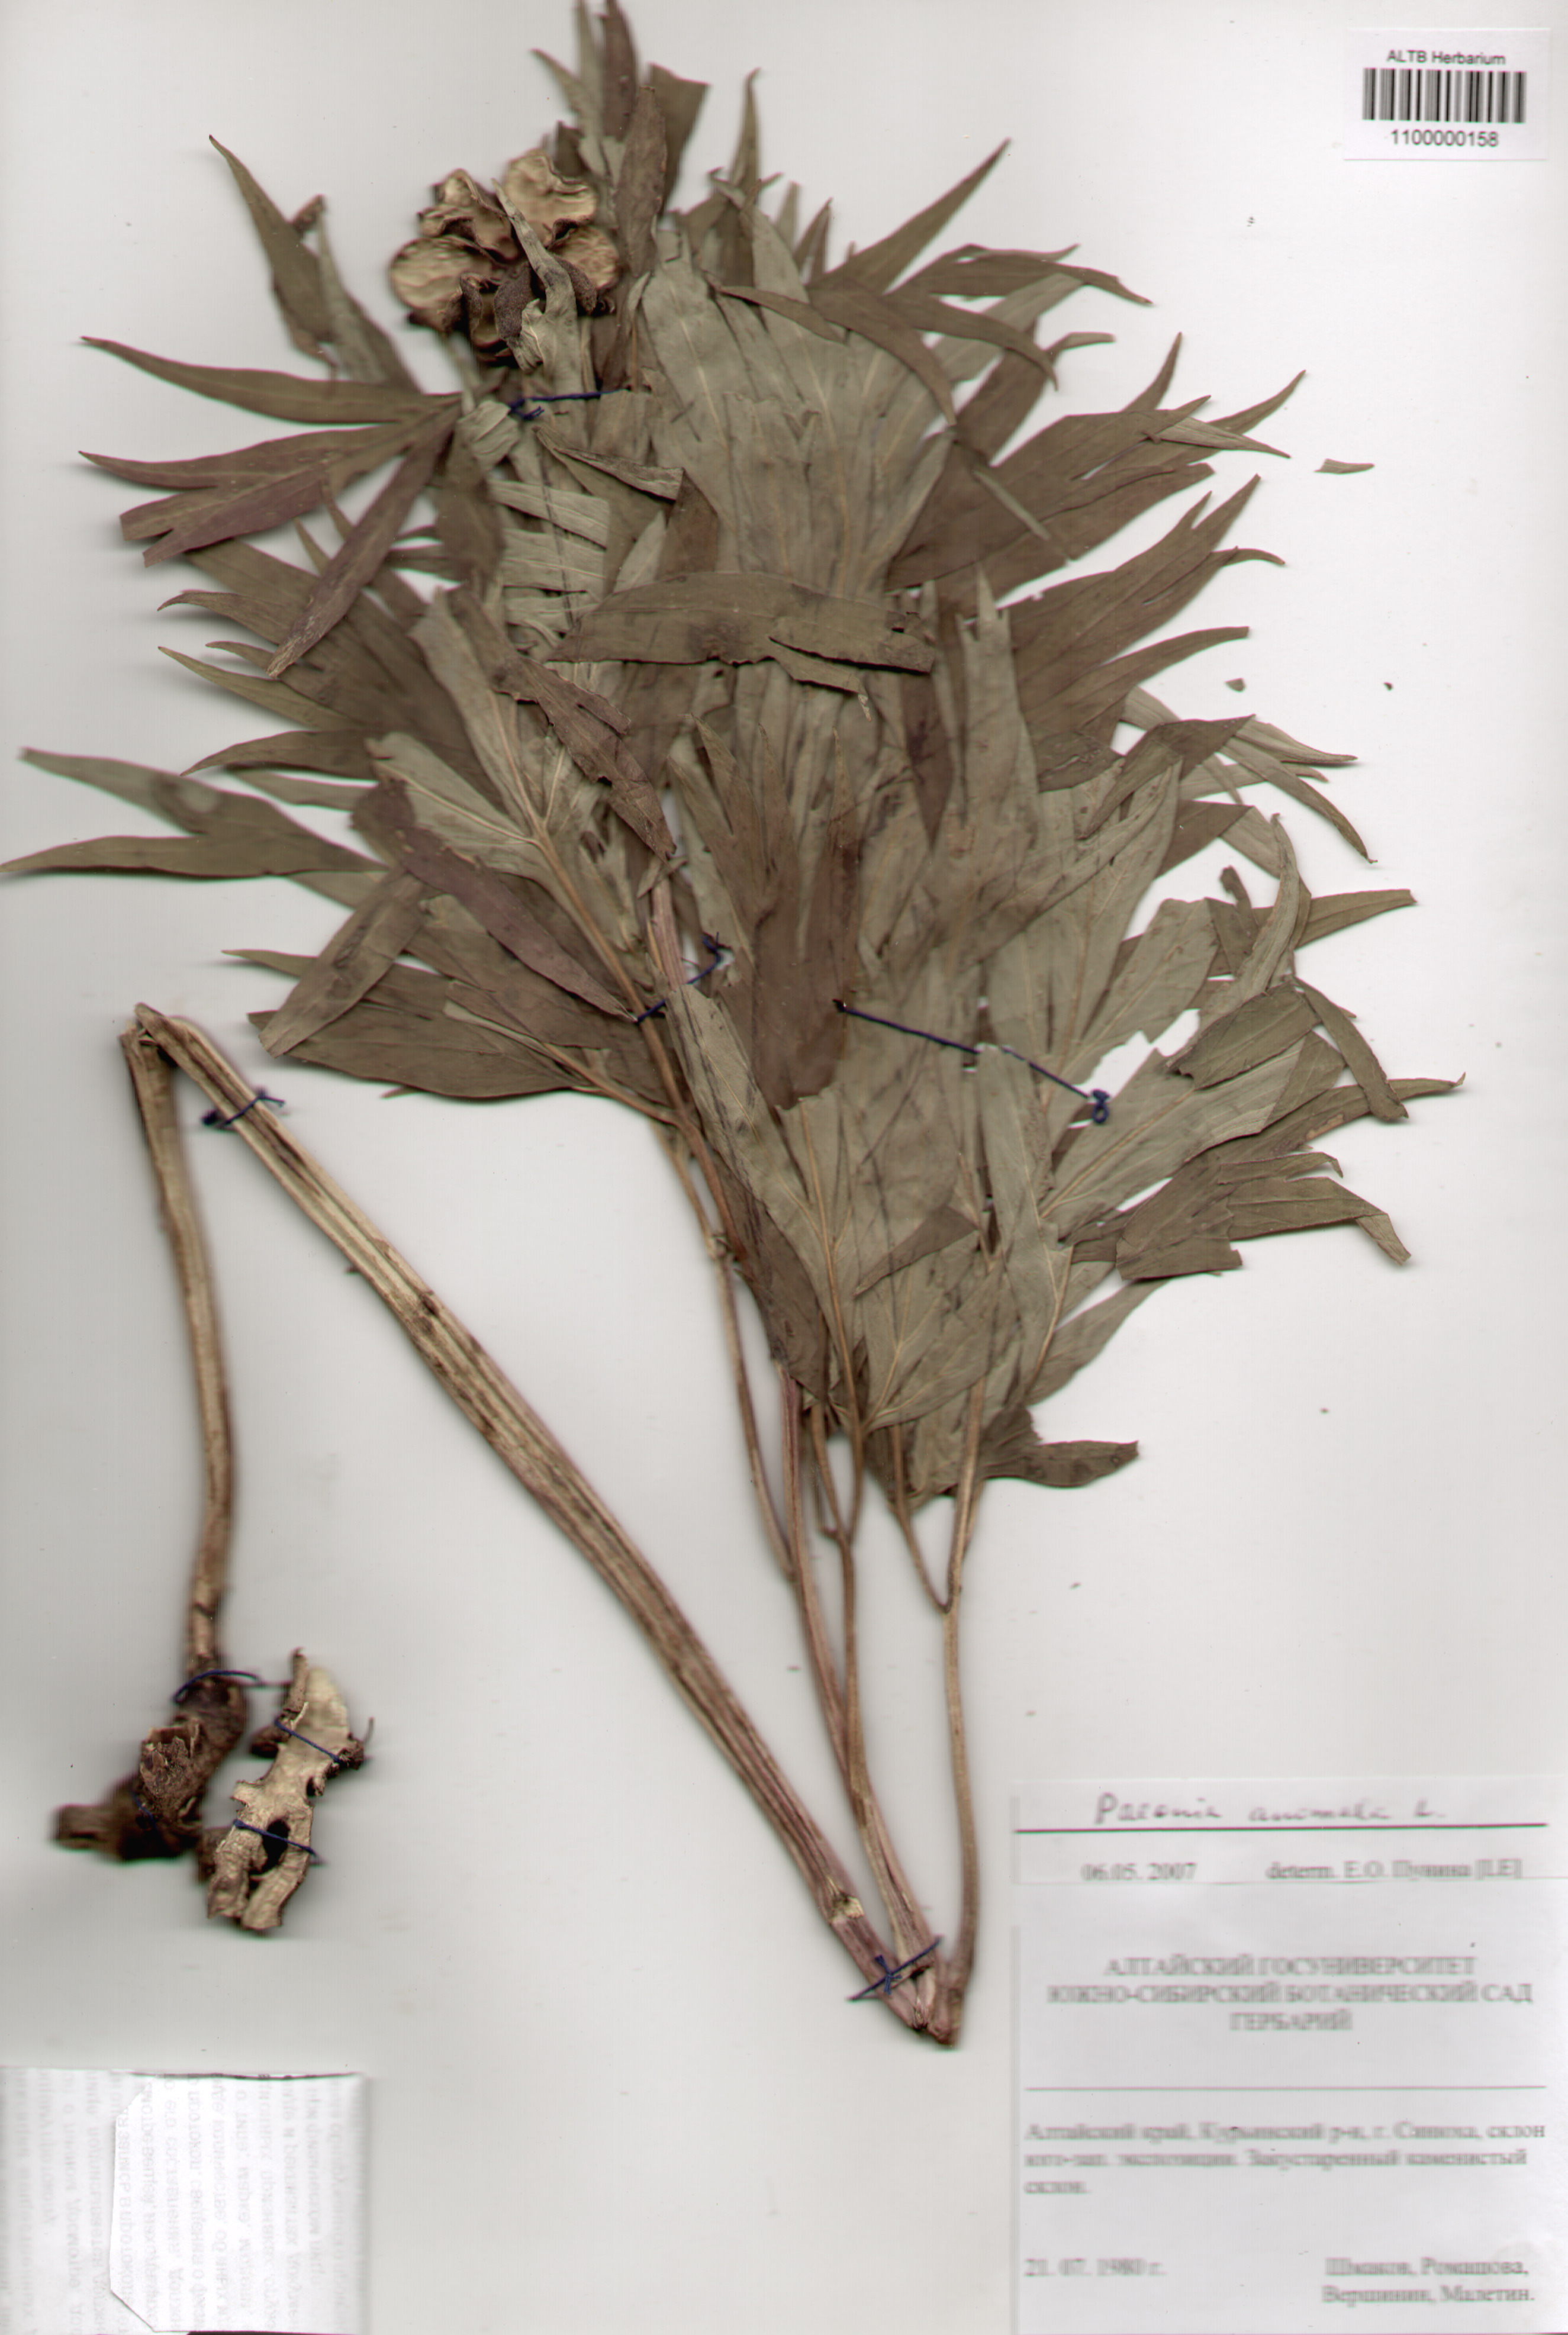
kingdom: Plantae
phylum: Tracheophyta
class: Magnoliopsida
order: Saxifragales
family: Paeoniaceae
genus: Paeonia
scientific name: Paeonia anomala
